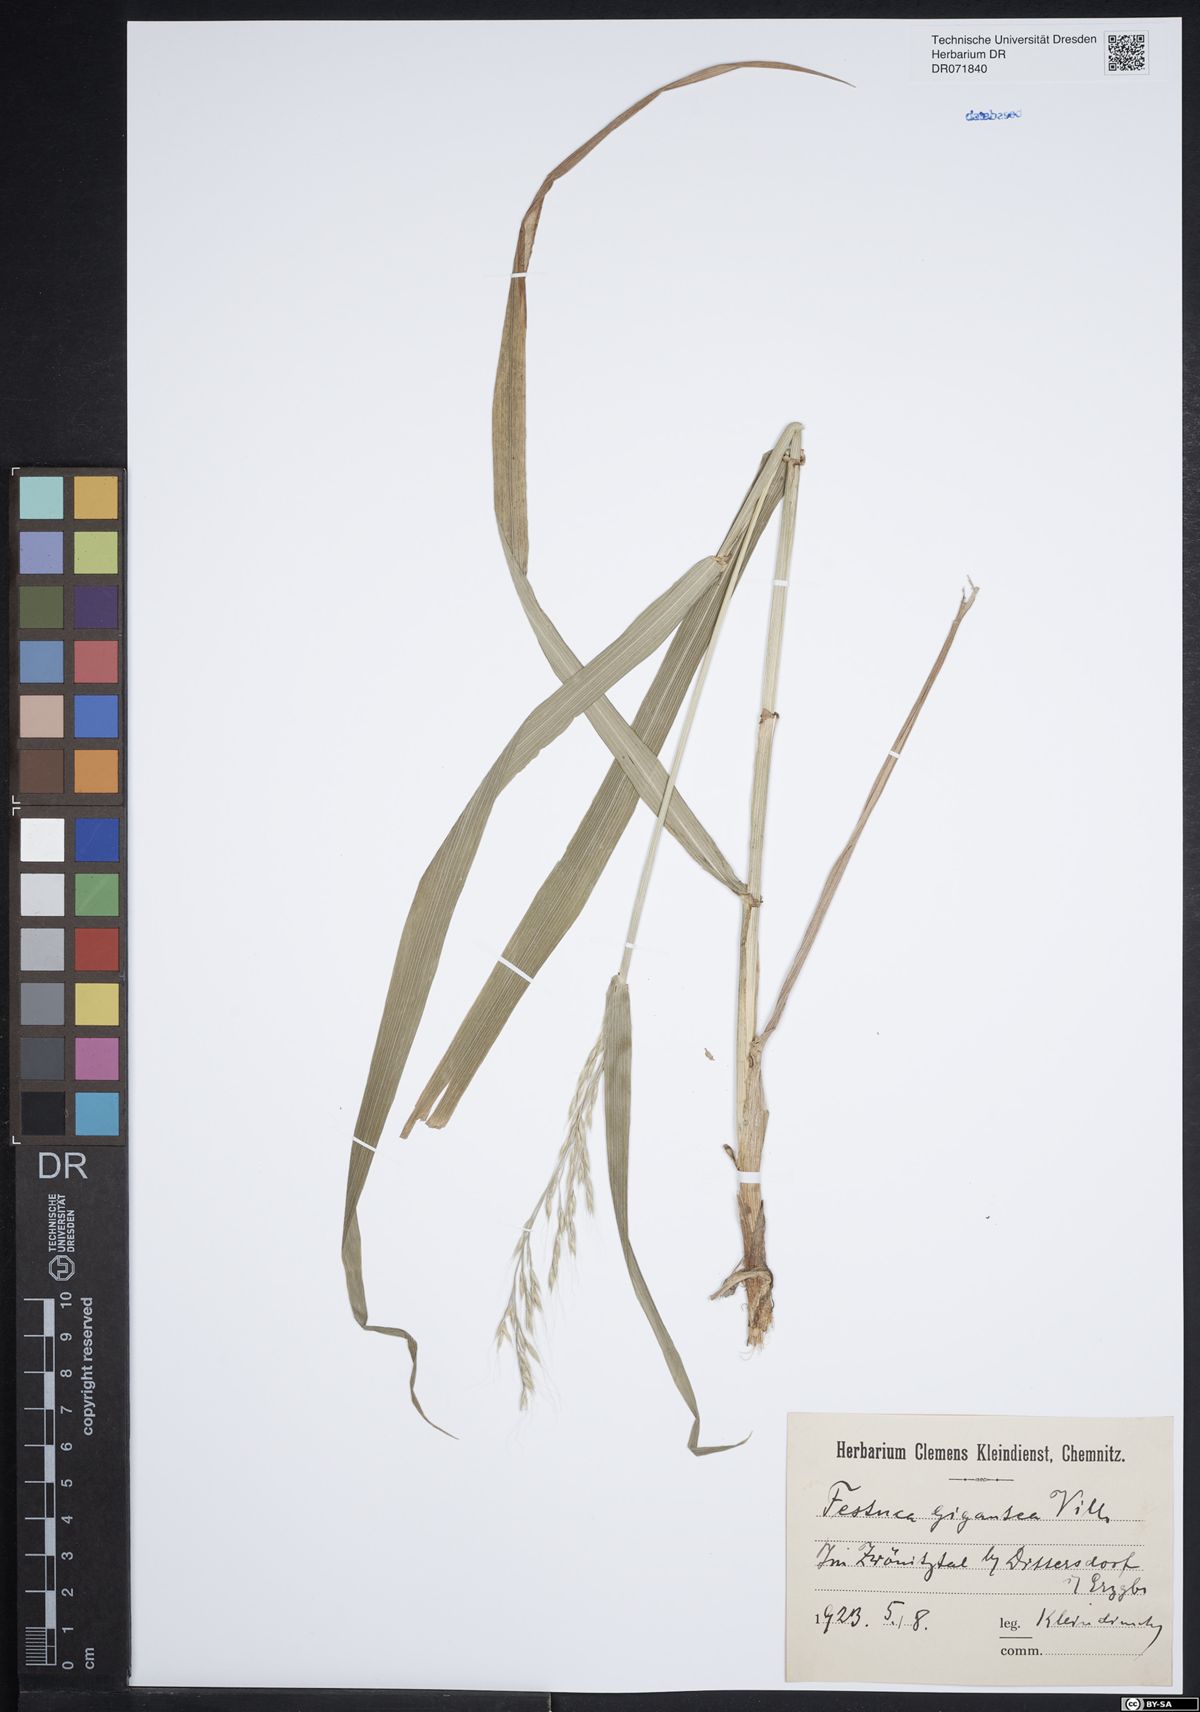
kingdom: Plantae
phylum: Tracheophyta
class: Liliopsida
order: Poales
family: Poaceae
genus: Lolium
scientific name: Lolium giganteum
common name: Giant fescue
